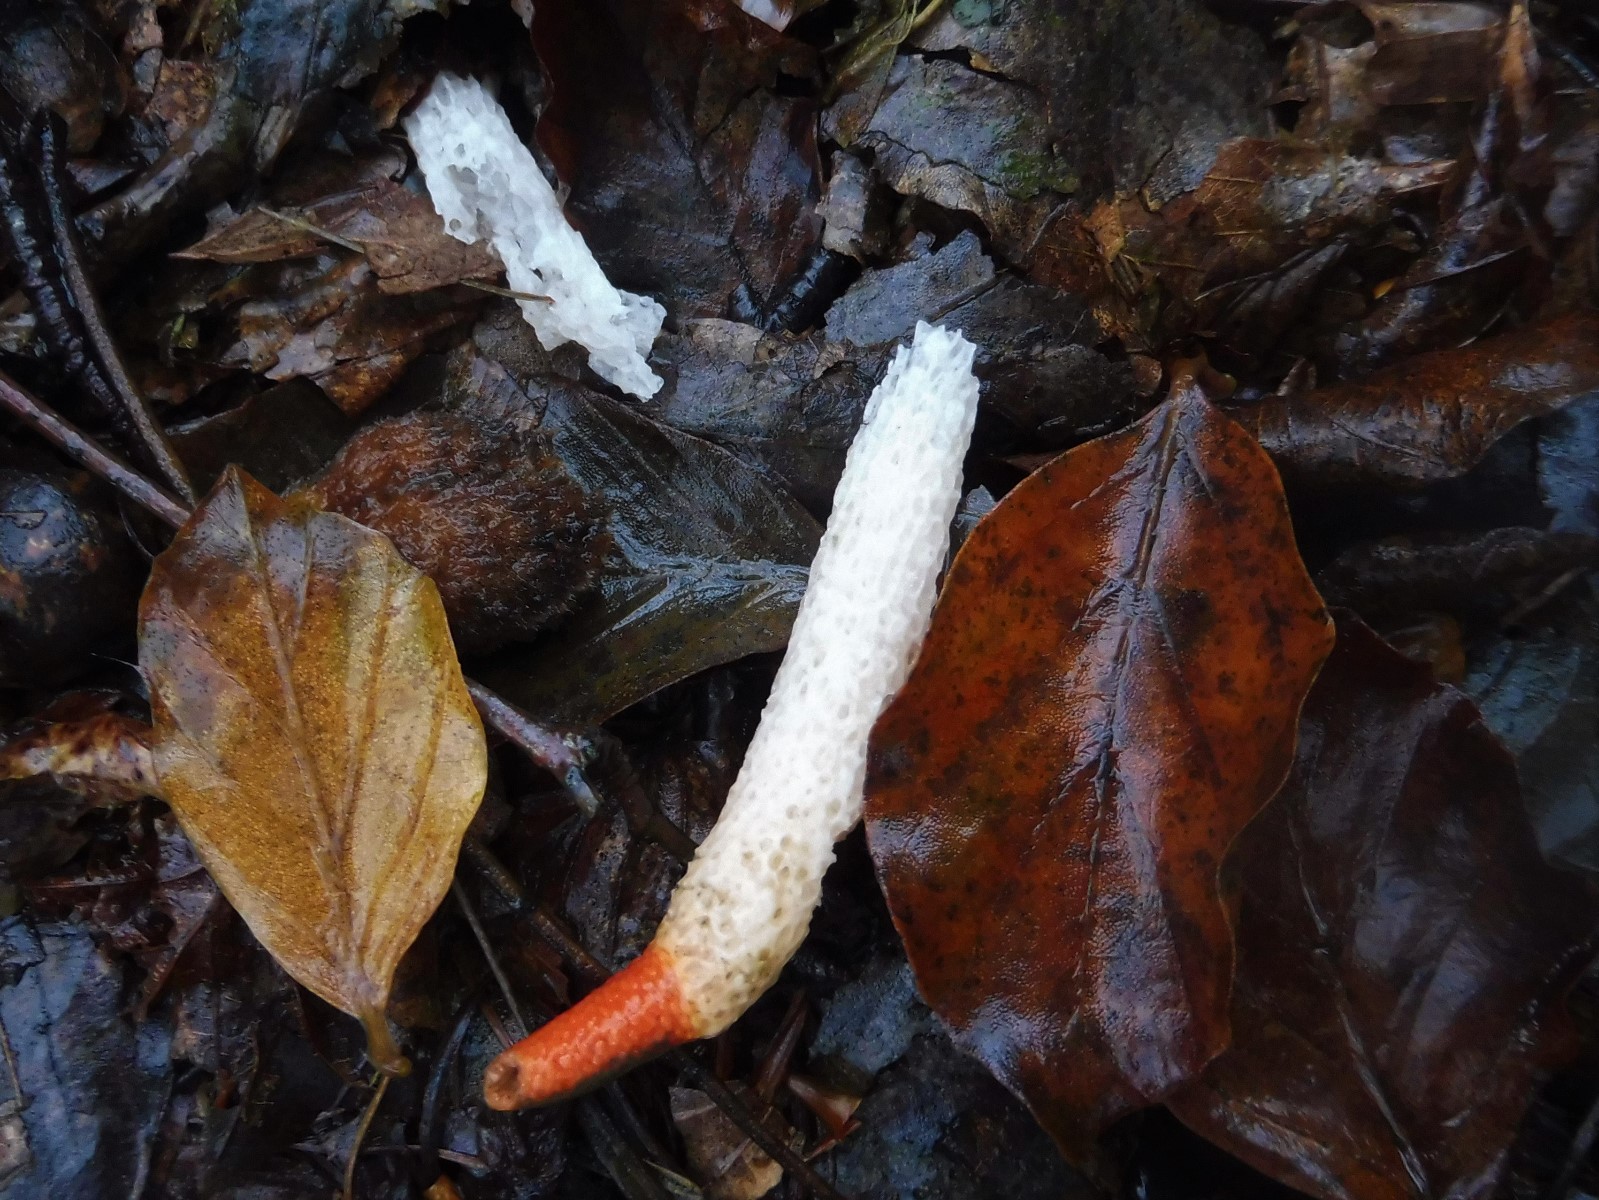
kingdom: Fungi
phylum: Basidiomycota
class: Agaricomycetes
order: Phallales
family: Phallaceae
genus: Mutinus
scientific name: Mutinus caninus
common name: hunde-stinksvamp
